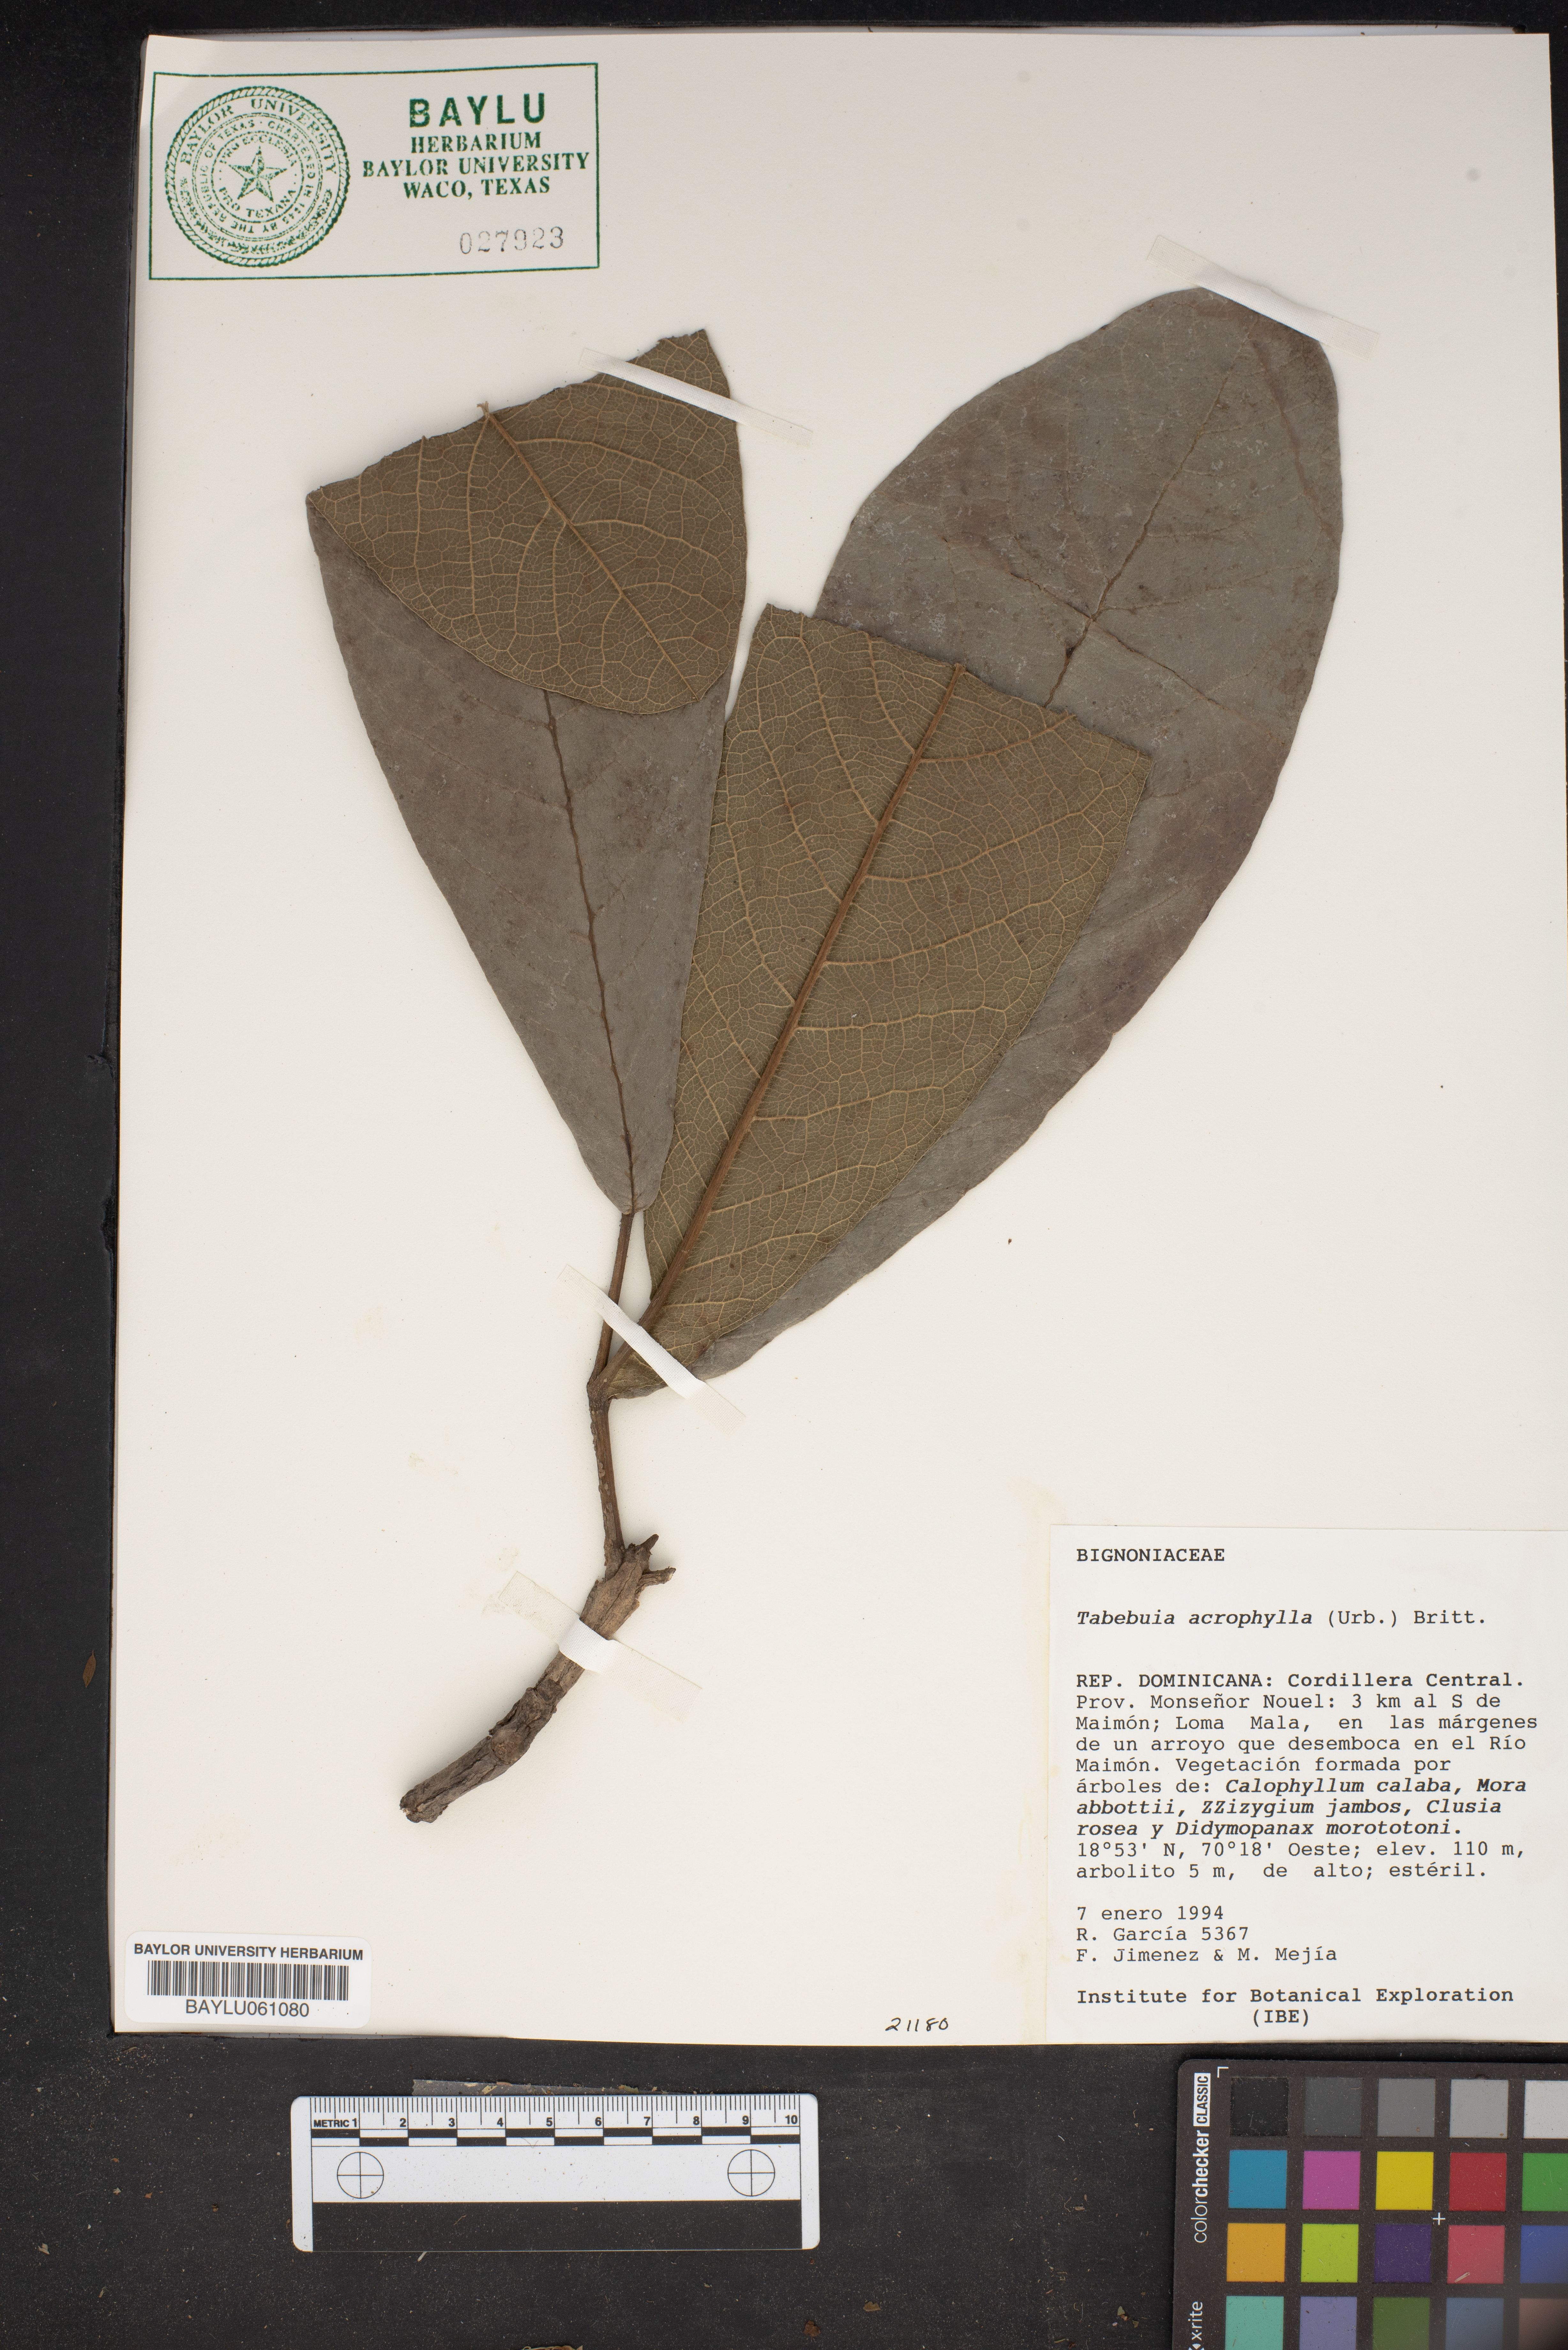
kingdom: Plantae
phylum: Tracheophyta
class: Magnoliopsida
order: Lamiales
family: Bignoniaceae
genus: Handroanthus
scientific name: Handroanthus umbellatus
